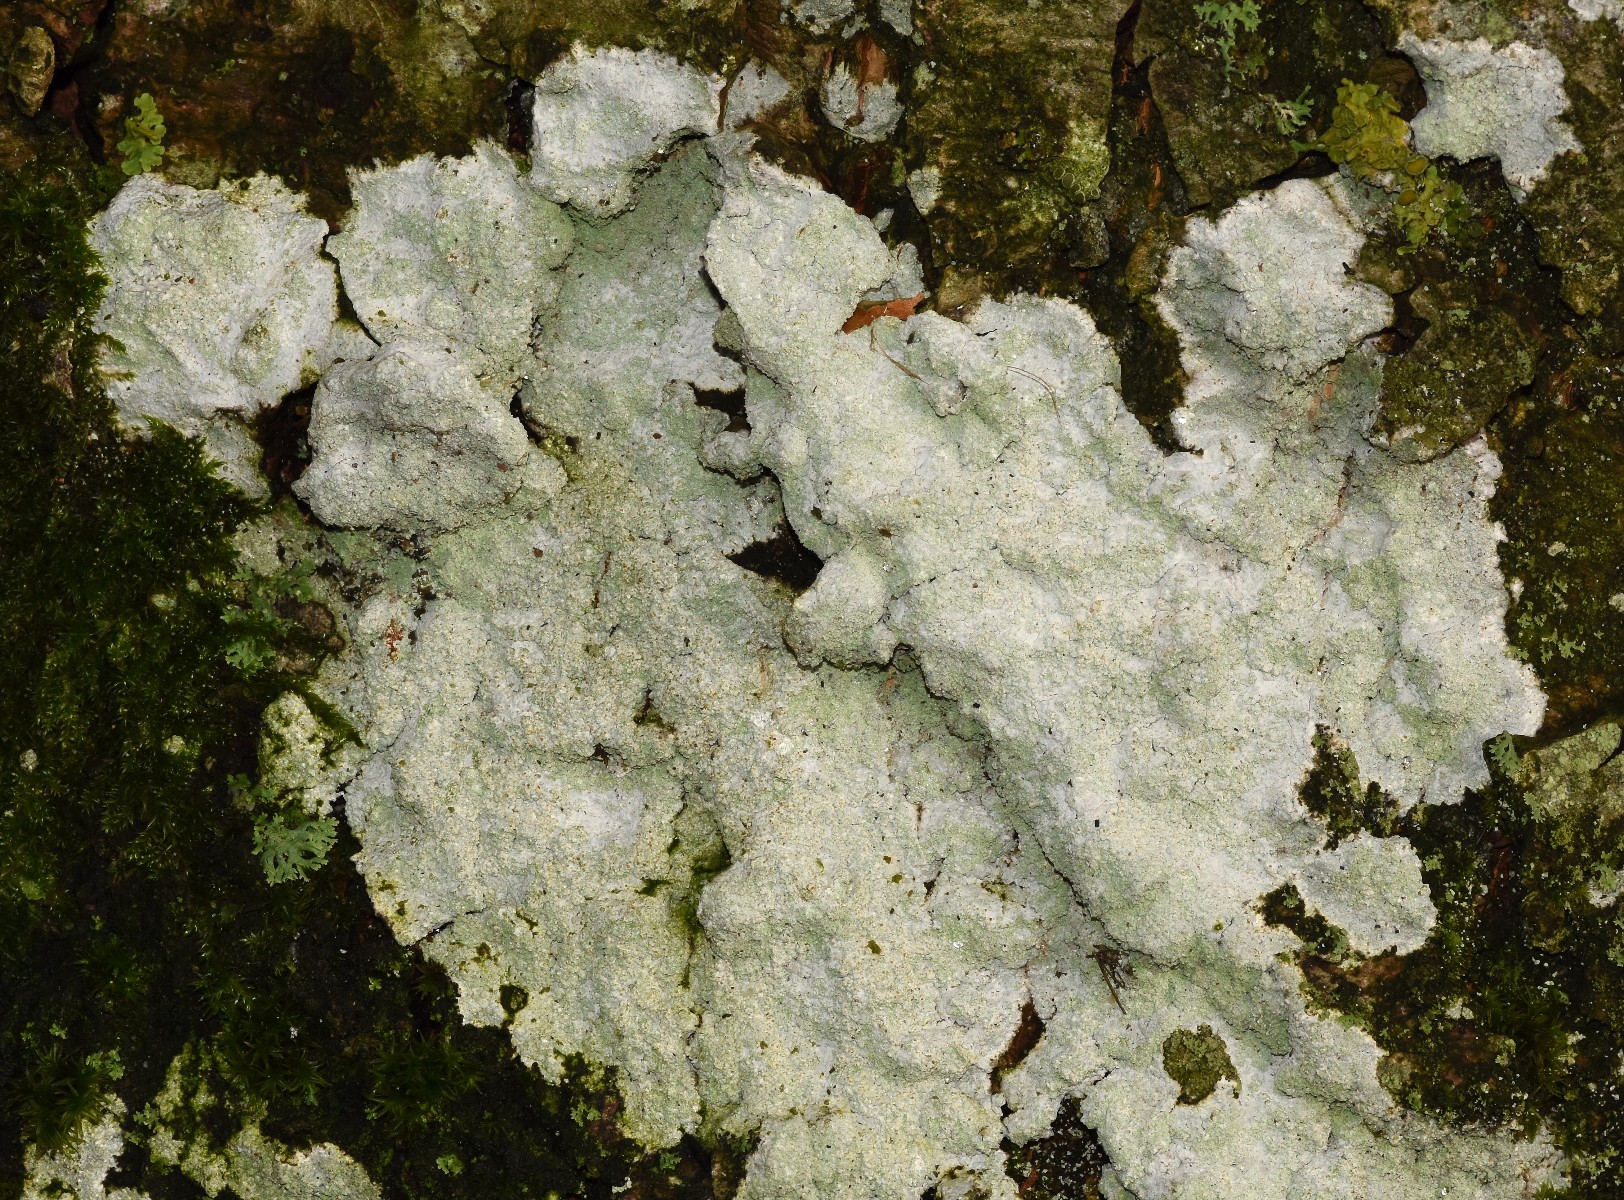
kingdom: Fungi
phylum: Ascomycota
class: Lecanoromycetes
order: Ostropales
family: Phlyctidaceae
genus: Phlyctis
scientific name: Phlyctis argena
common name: almindelig sølvlav
